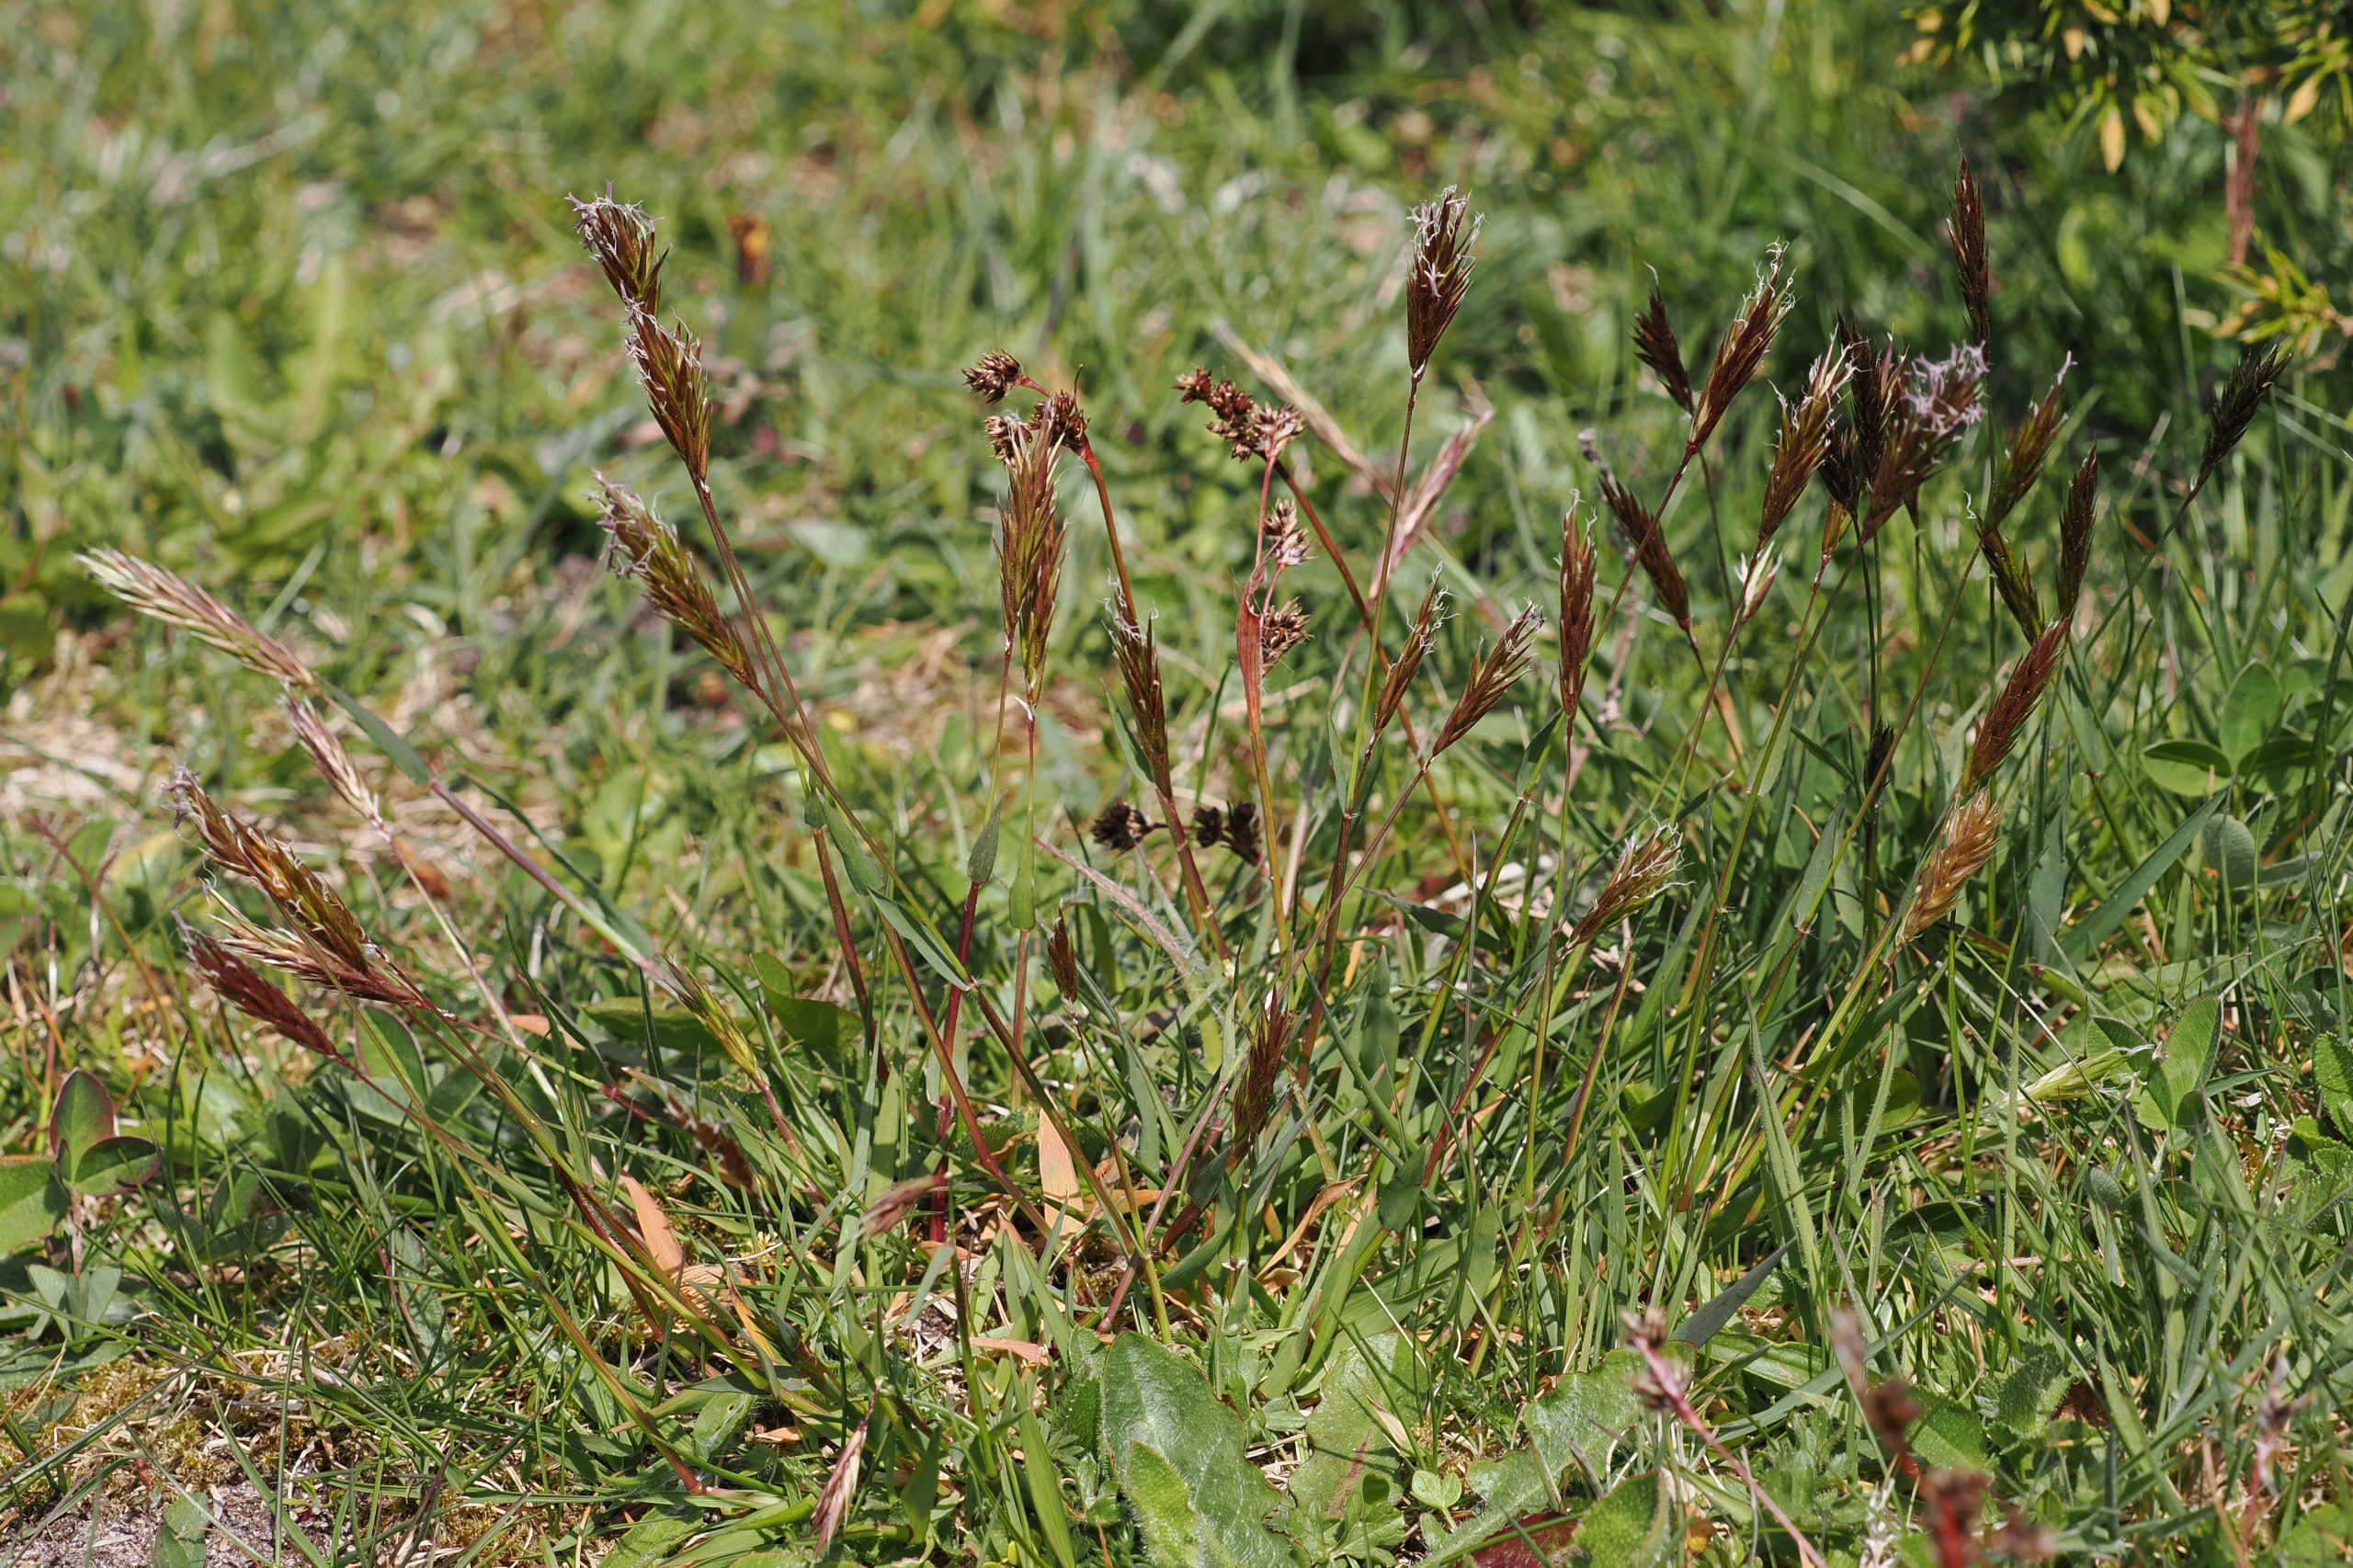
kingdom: Plantae
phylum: Tracheophyta
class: Liliopsida
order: Poales
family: Poaceae
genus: Anthoxanthum
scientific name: Anthoxanthum odoratum
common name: Vellugtende gulaks
